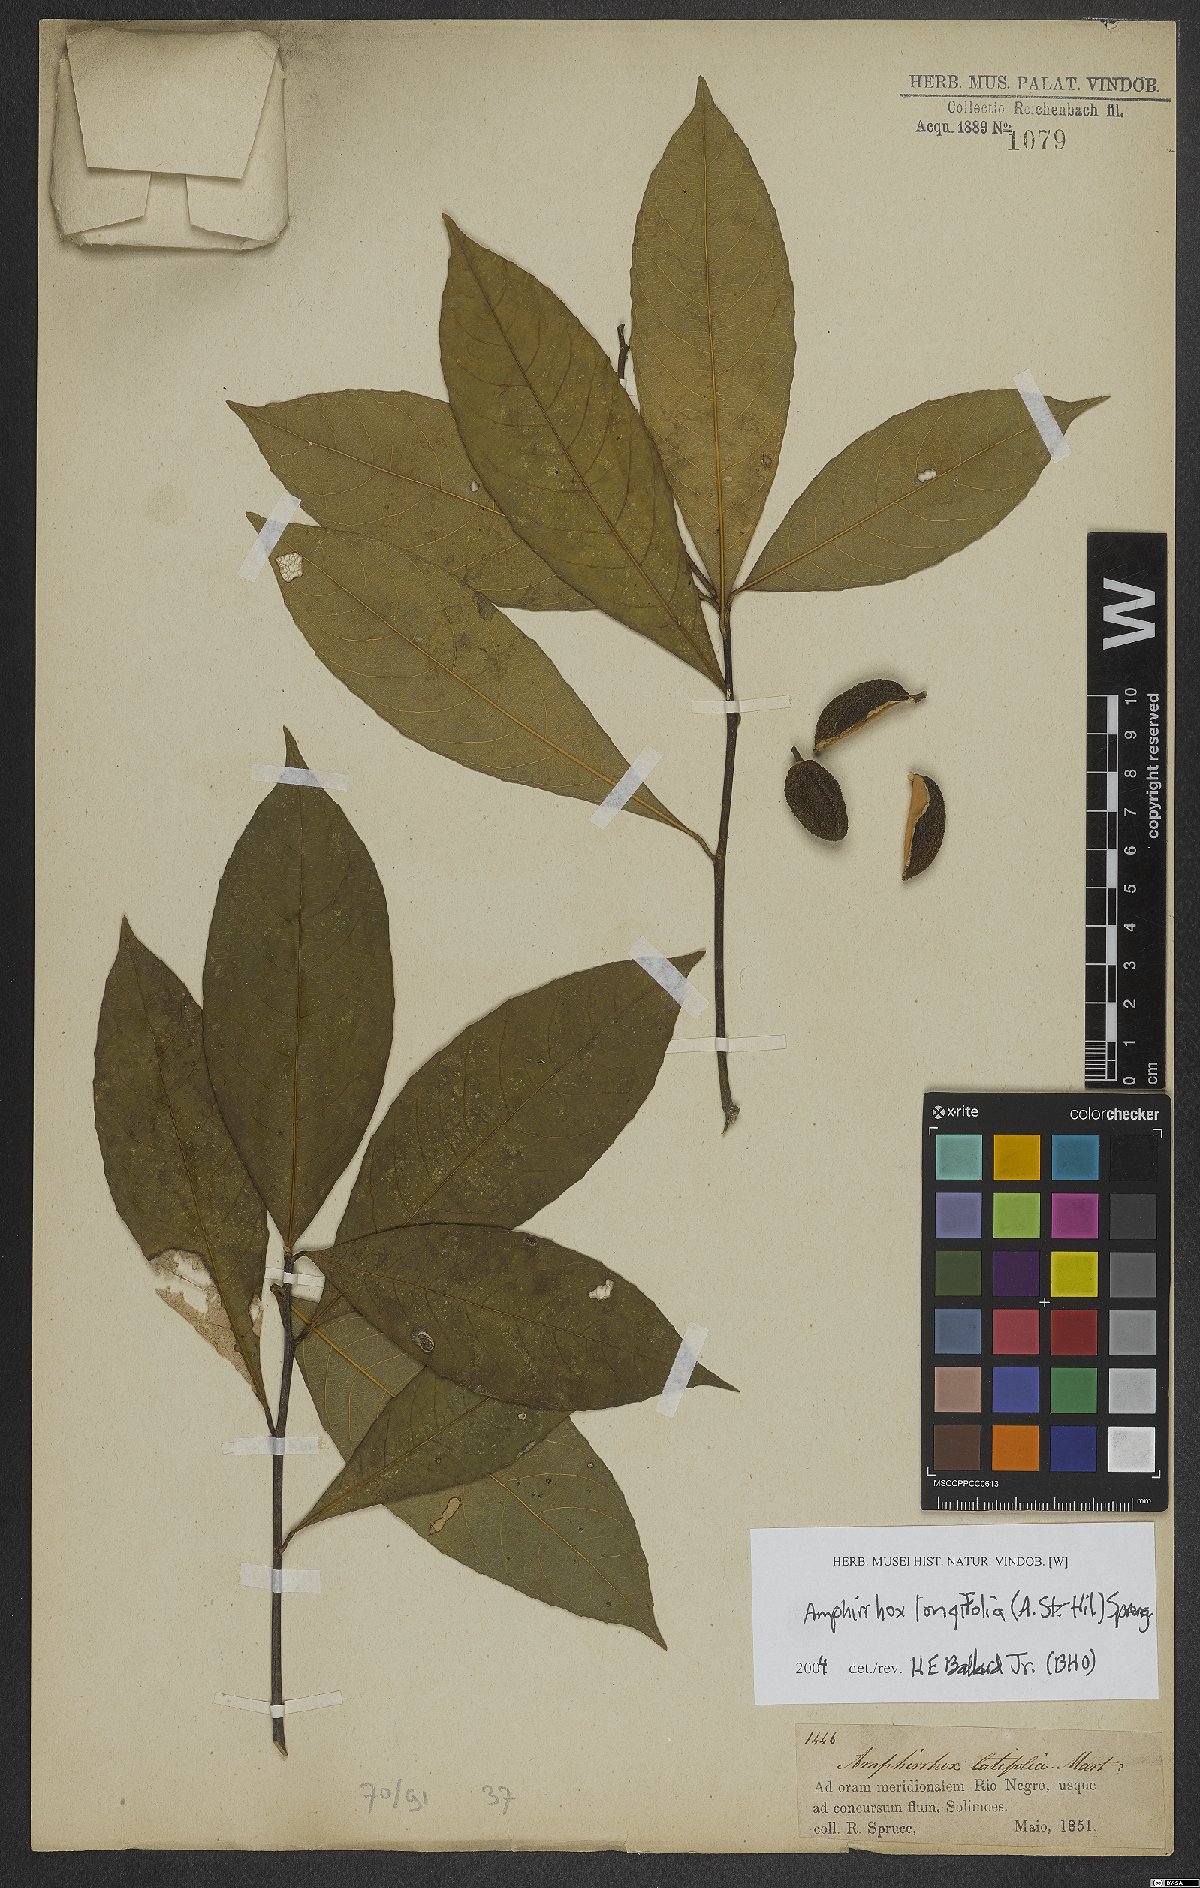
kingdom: Plantae
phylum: Tracheophyta
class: Magnoliopsida
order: Malpighiales
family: Violaceae
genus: Amphirrhox
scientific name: Amphirrhox longifolia
